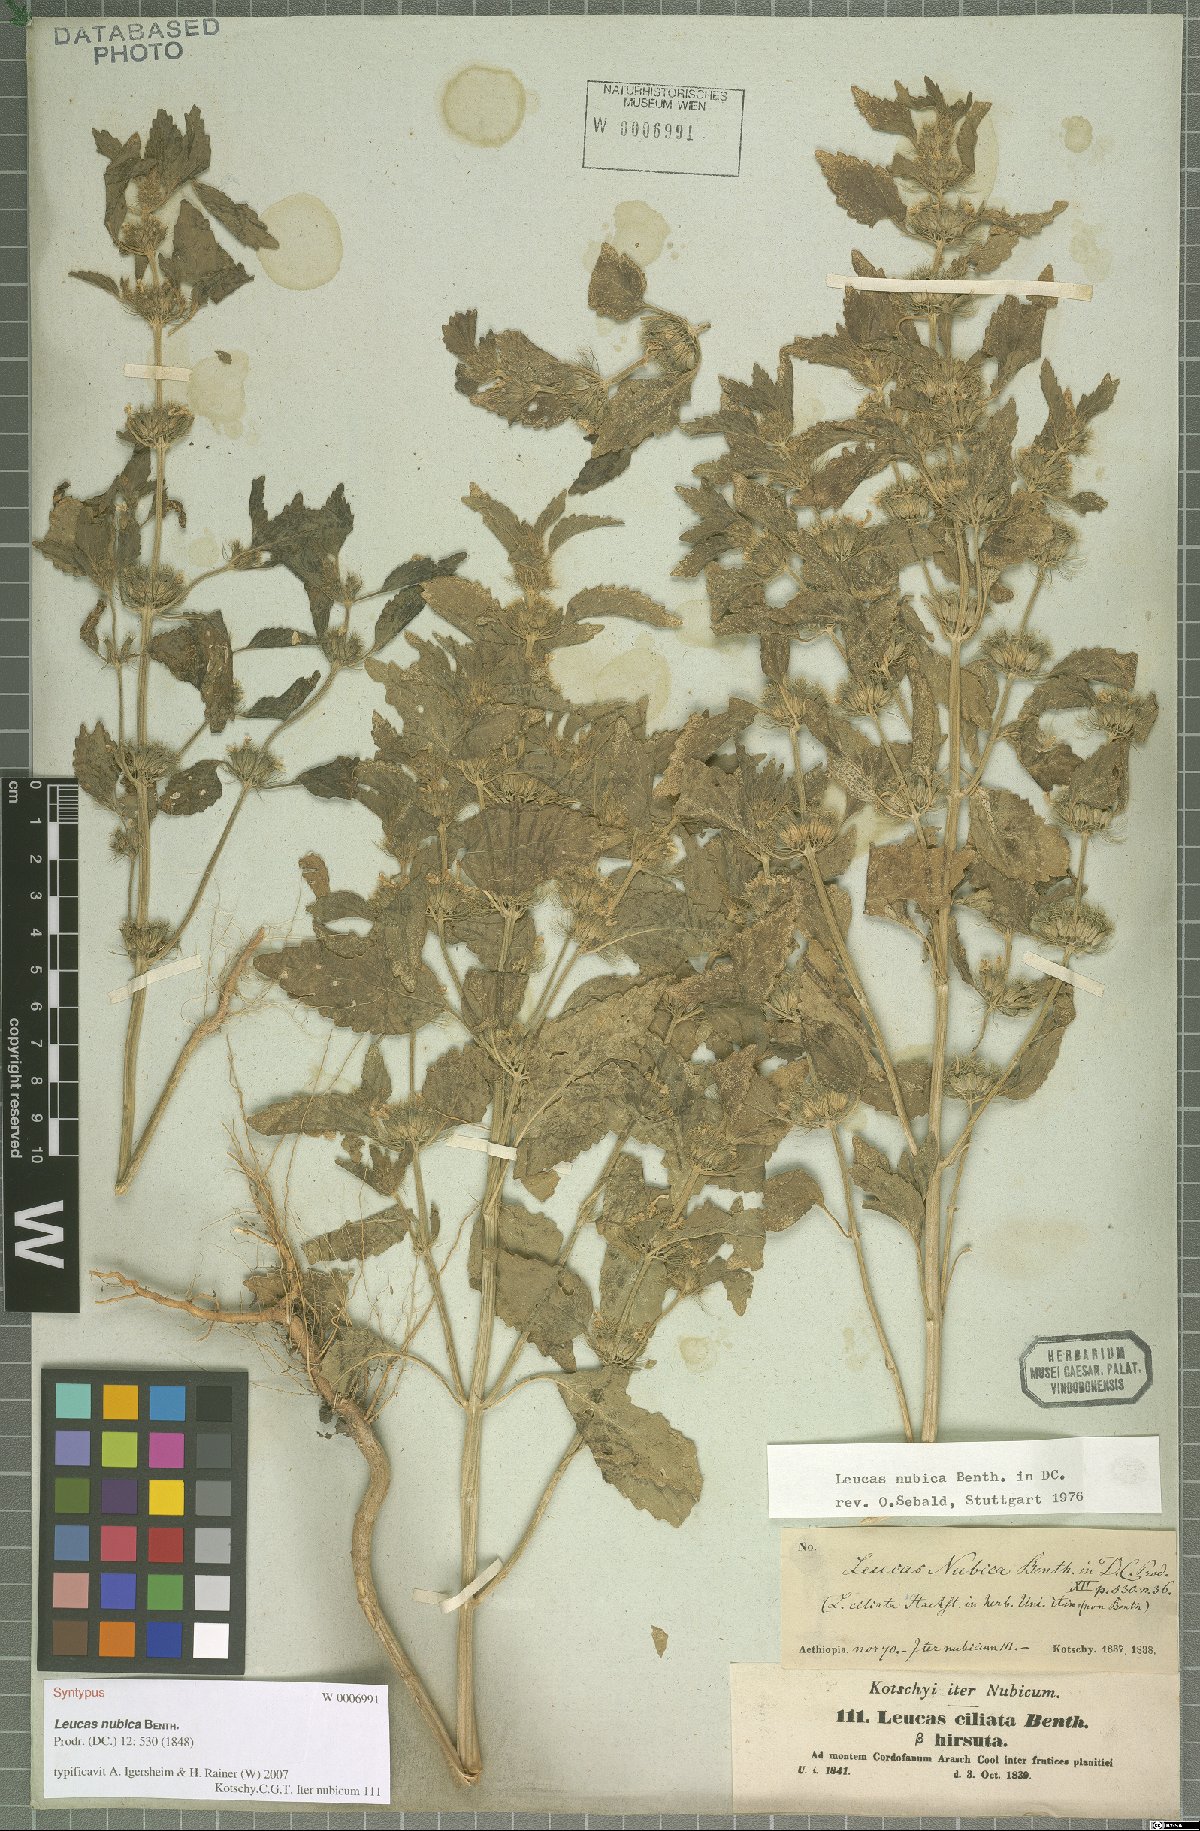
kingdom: Plantae
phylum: Tracheophyta
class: Magnoliopsida
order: Lamiales
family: Lamiaceae
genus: Leucas
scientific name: Leucas nubica
